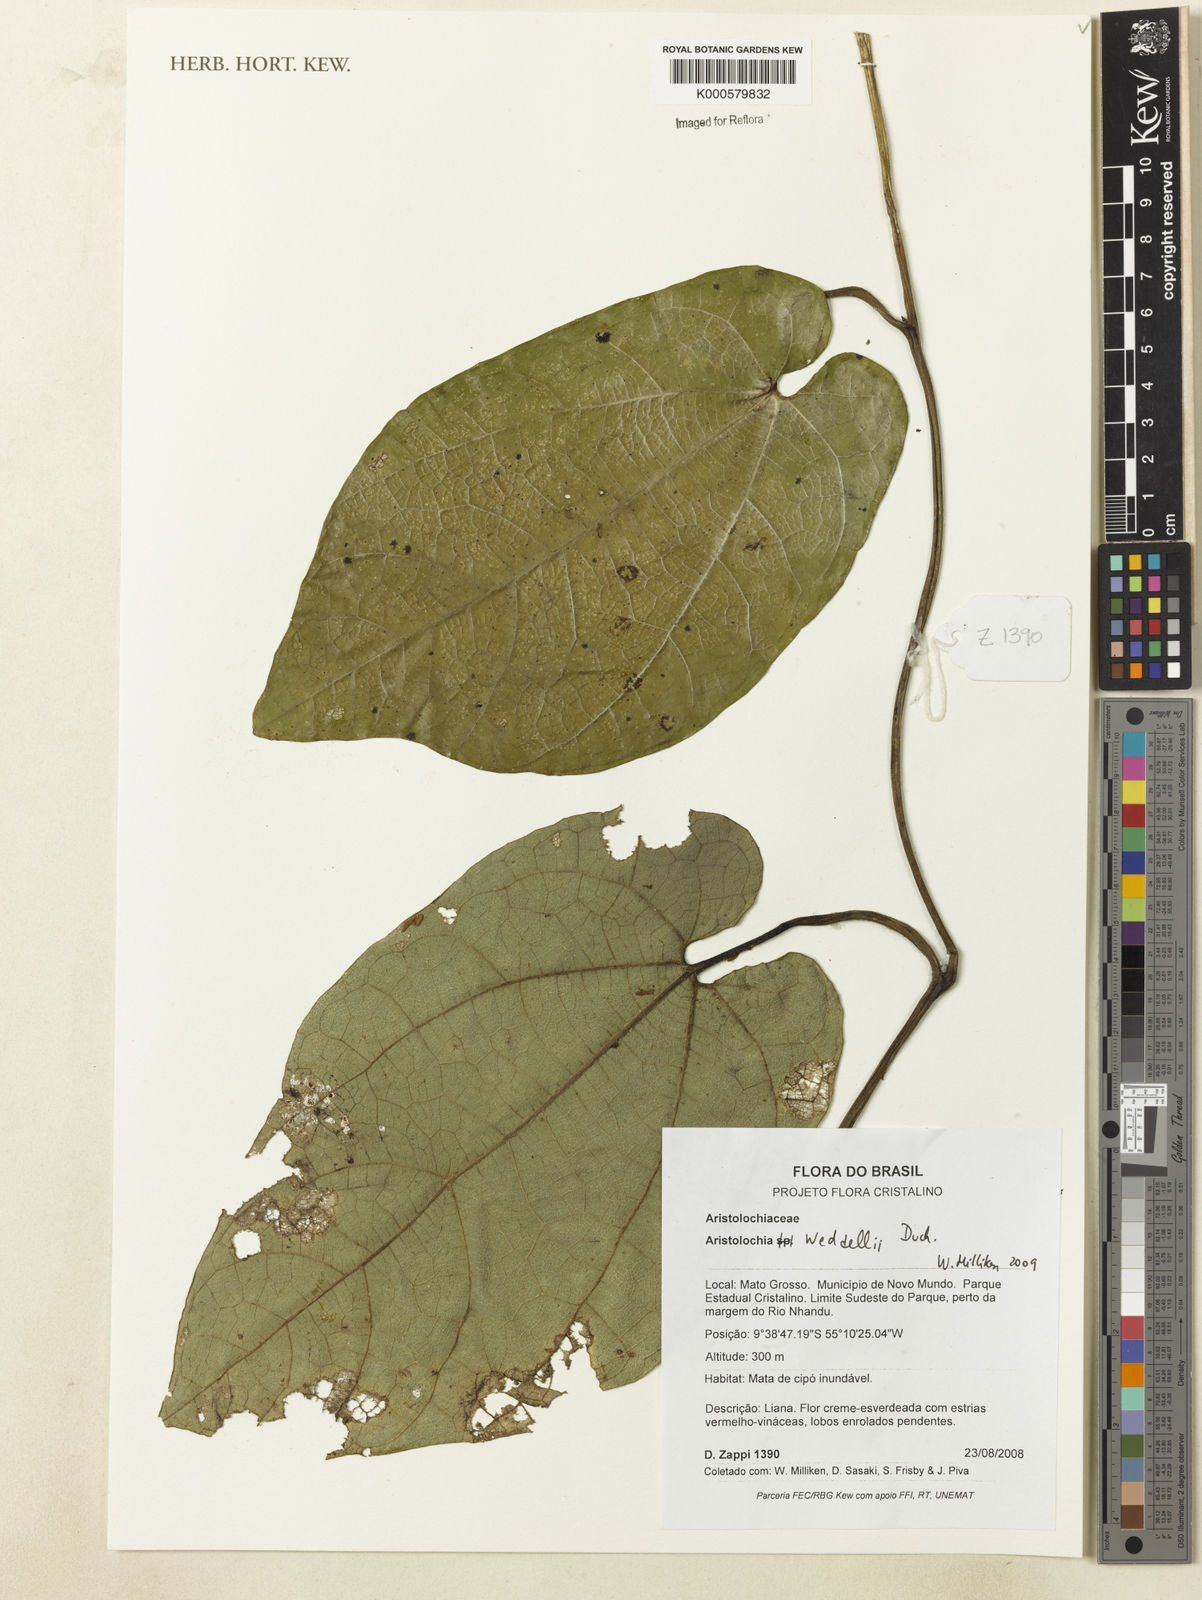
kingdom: Plantae
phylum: Tracheophyta
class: Magnoliopsida
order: Piperales
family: Aristolochiaceae
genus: Aristolochia
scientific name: Aristolochia weddellii
